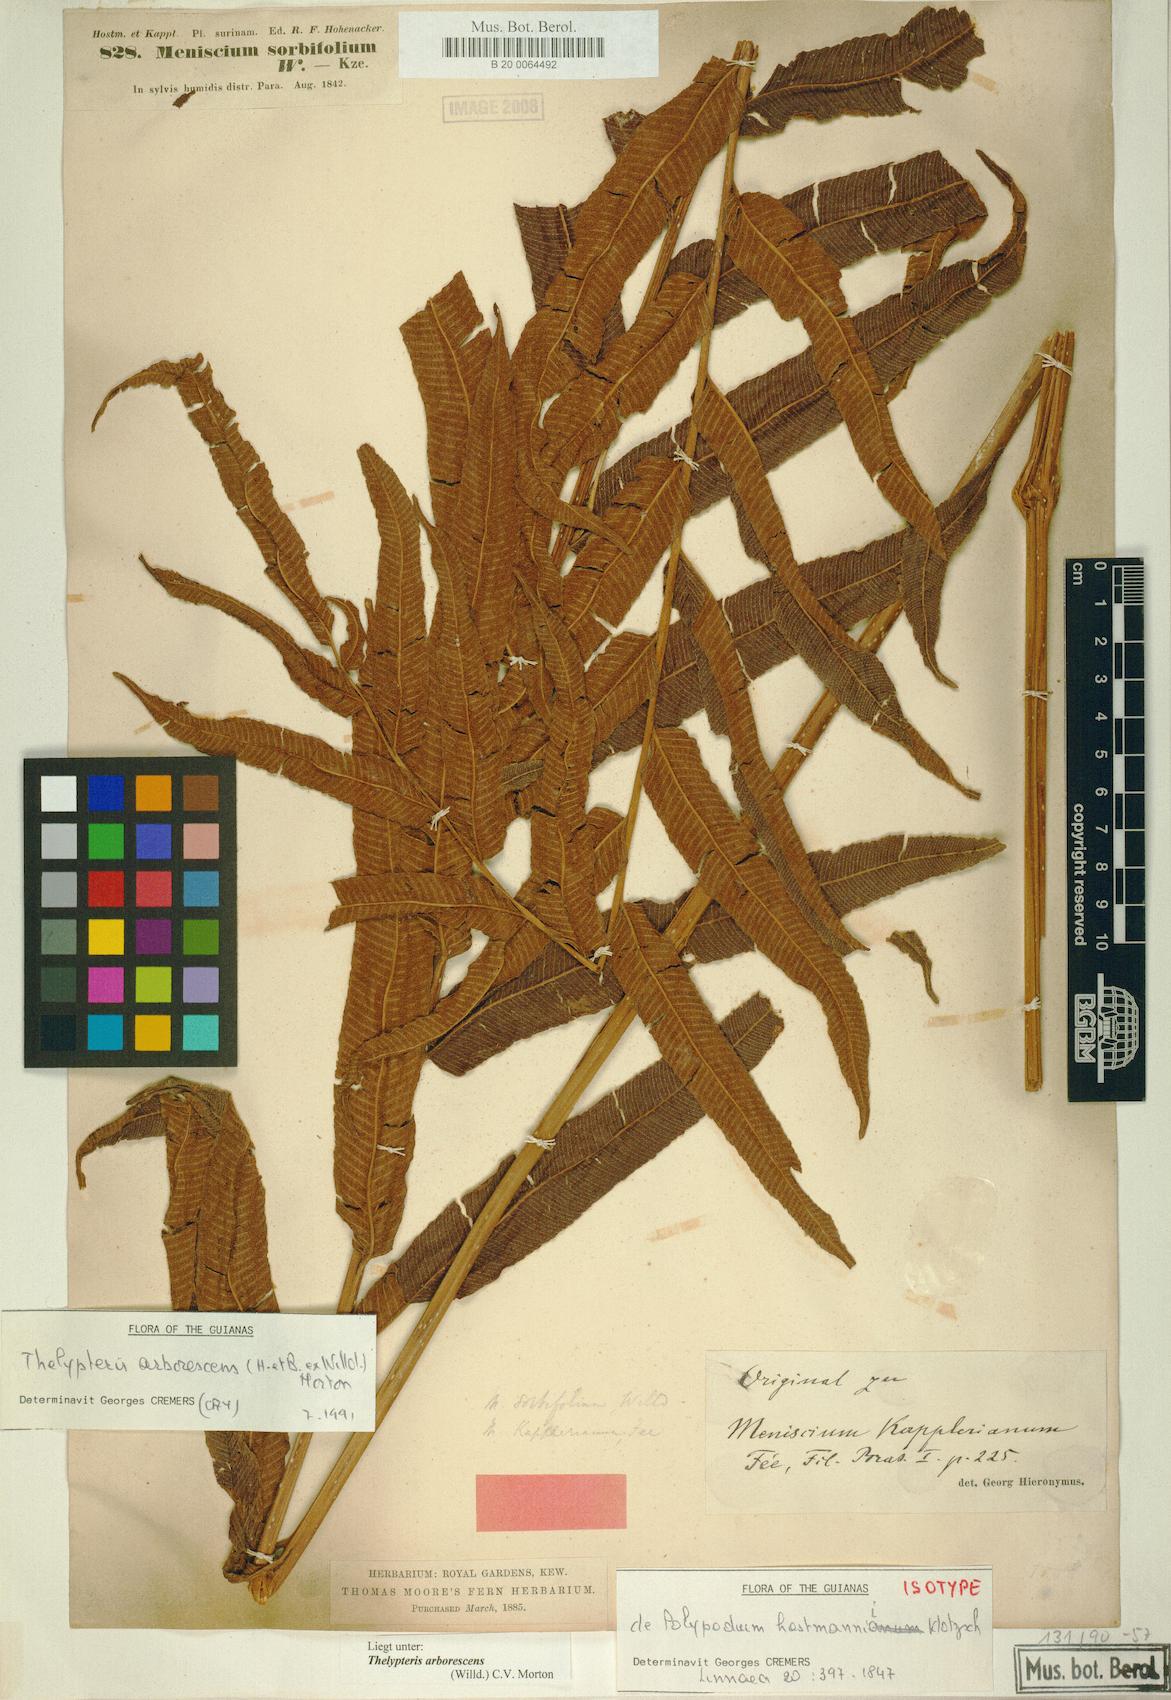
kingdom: Plantae
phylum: Tracheophyta
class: Polypodiopsida
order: Polypodiales
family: Thelypteridaceae
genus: Meniscium
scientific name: Meniscium arborescens
